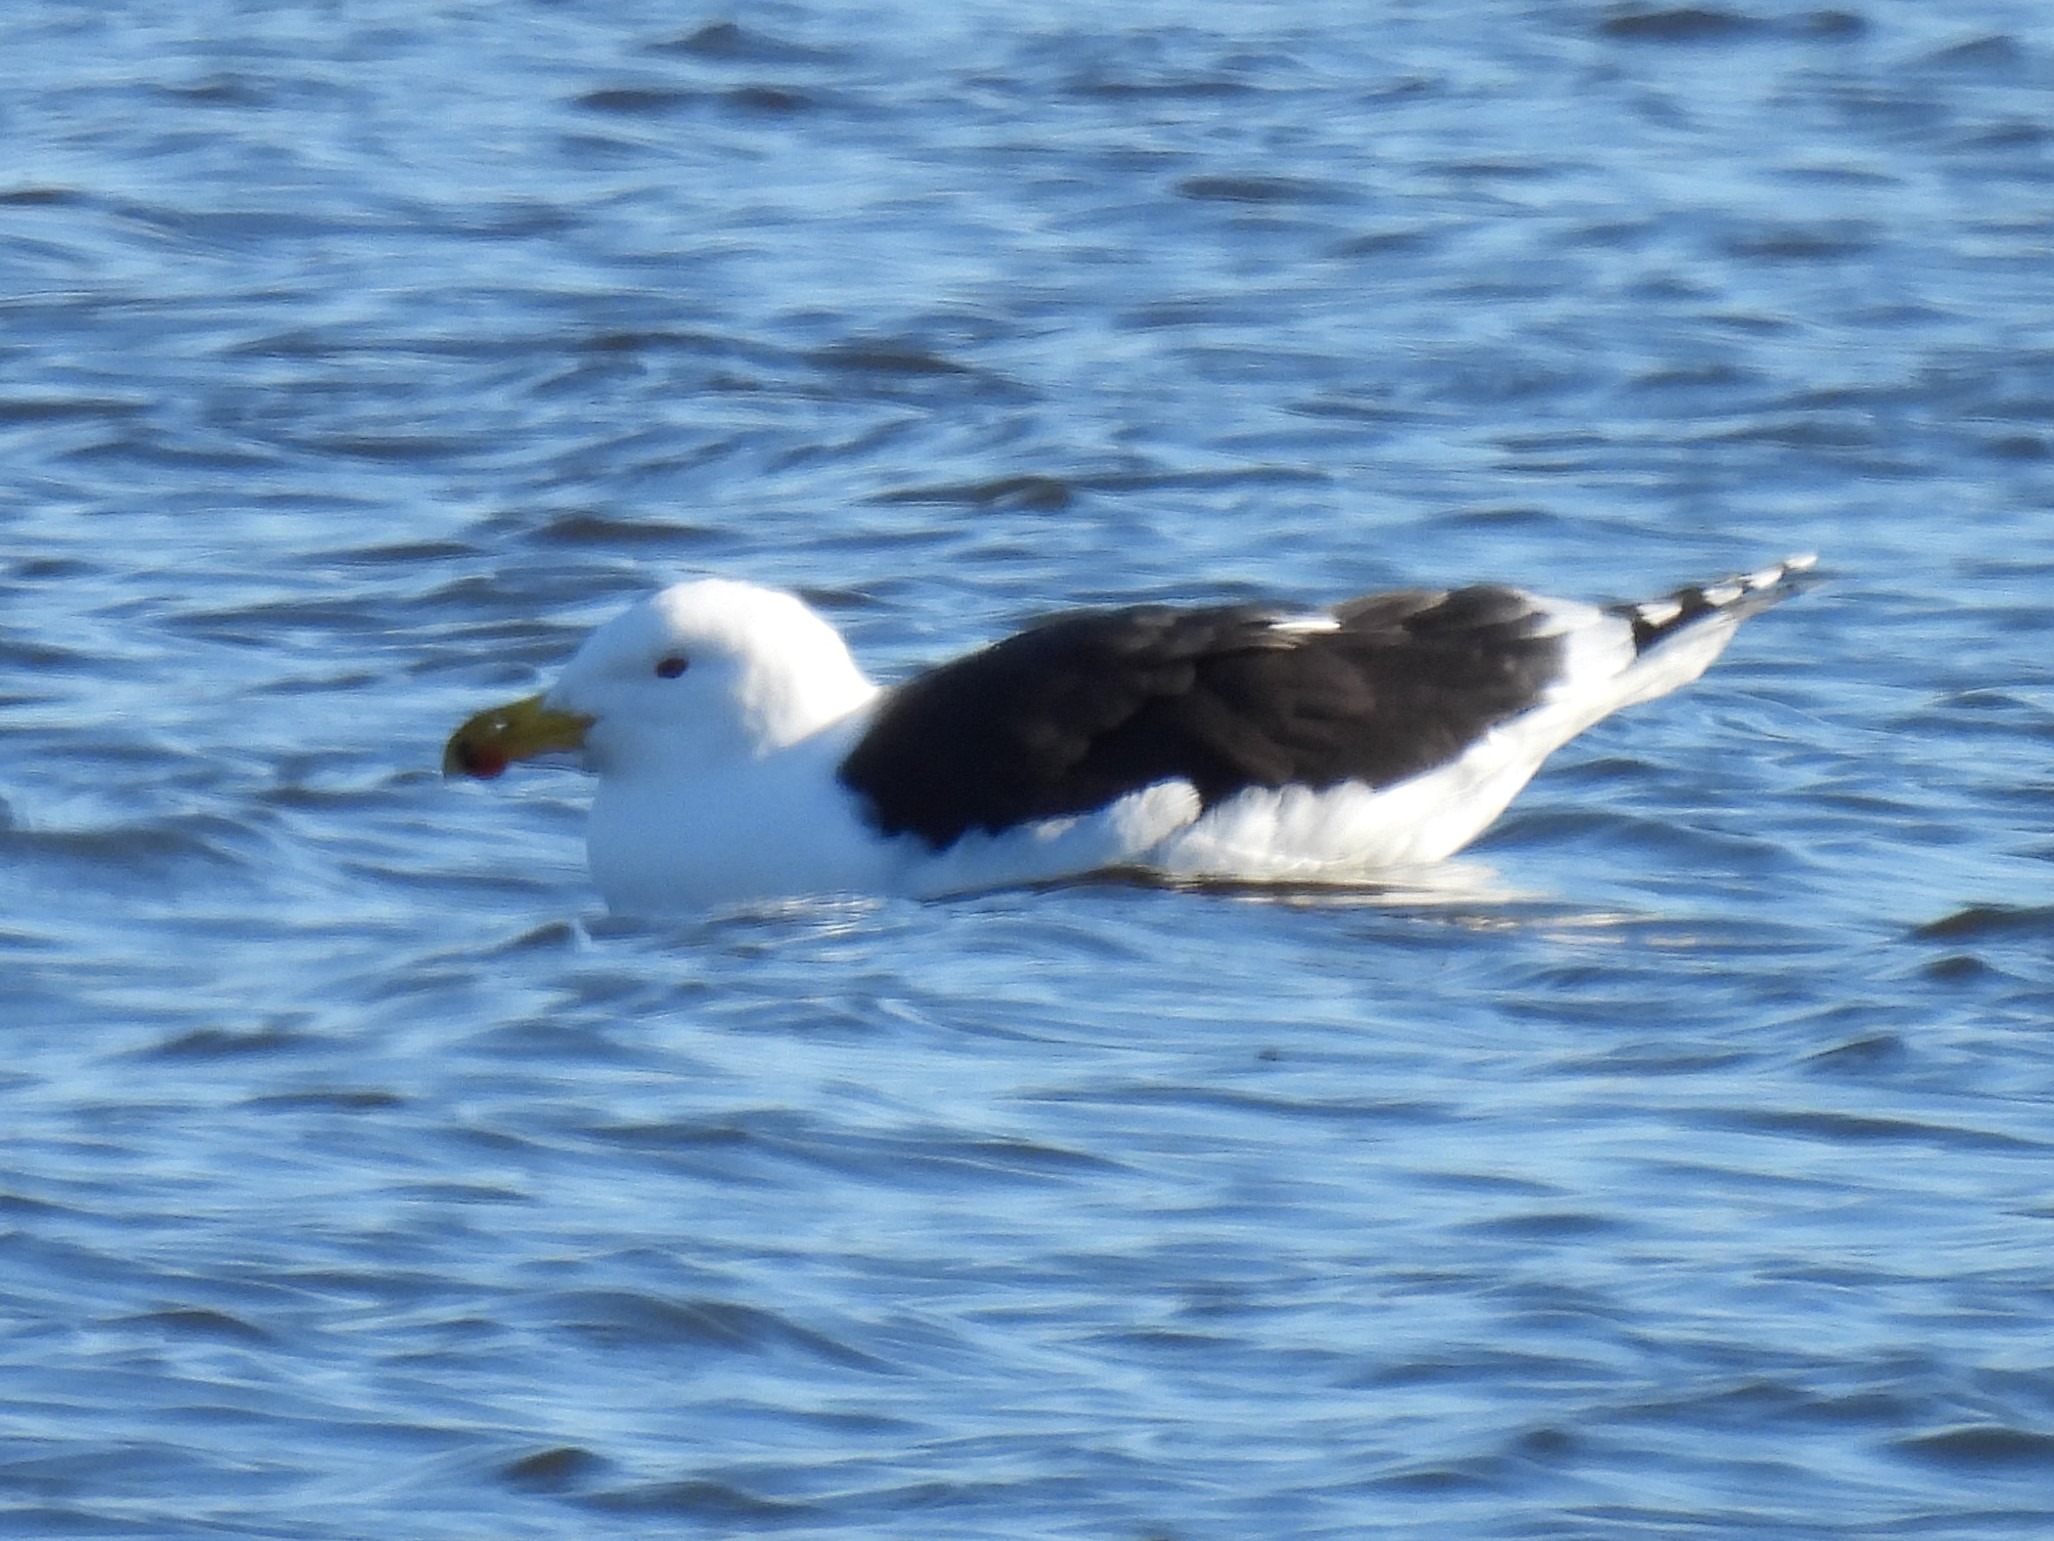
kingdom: Animalia
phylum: Chordata
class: Aves
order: Charadriiformes
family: Laridae
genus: Larus
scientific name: Larus marinus
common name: Svartbag
